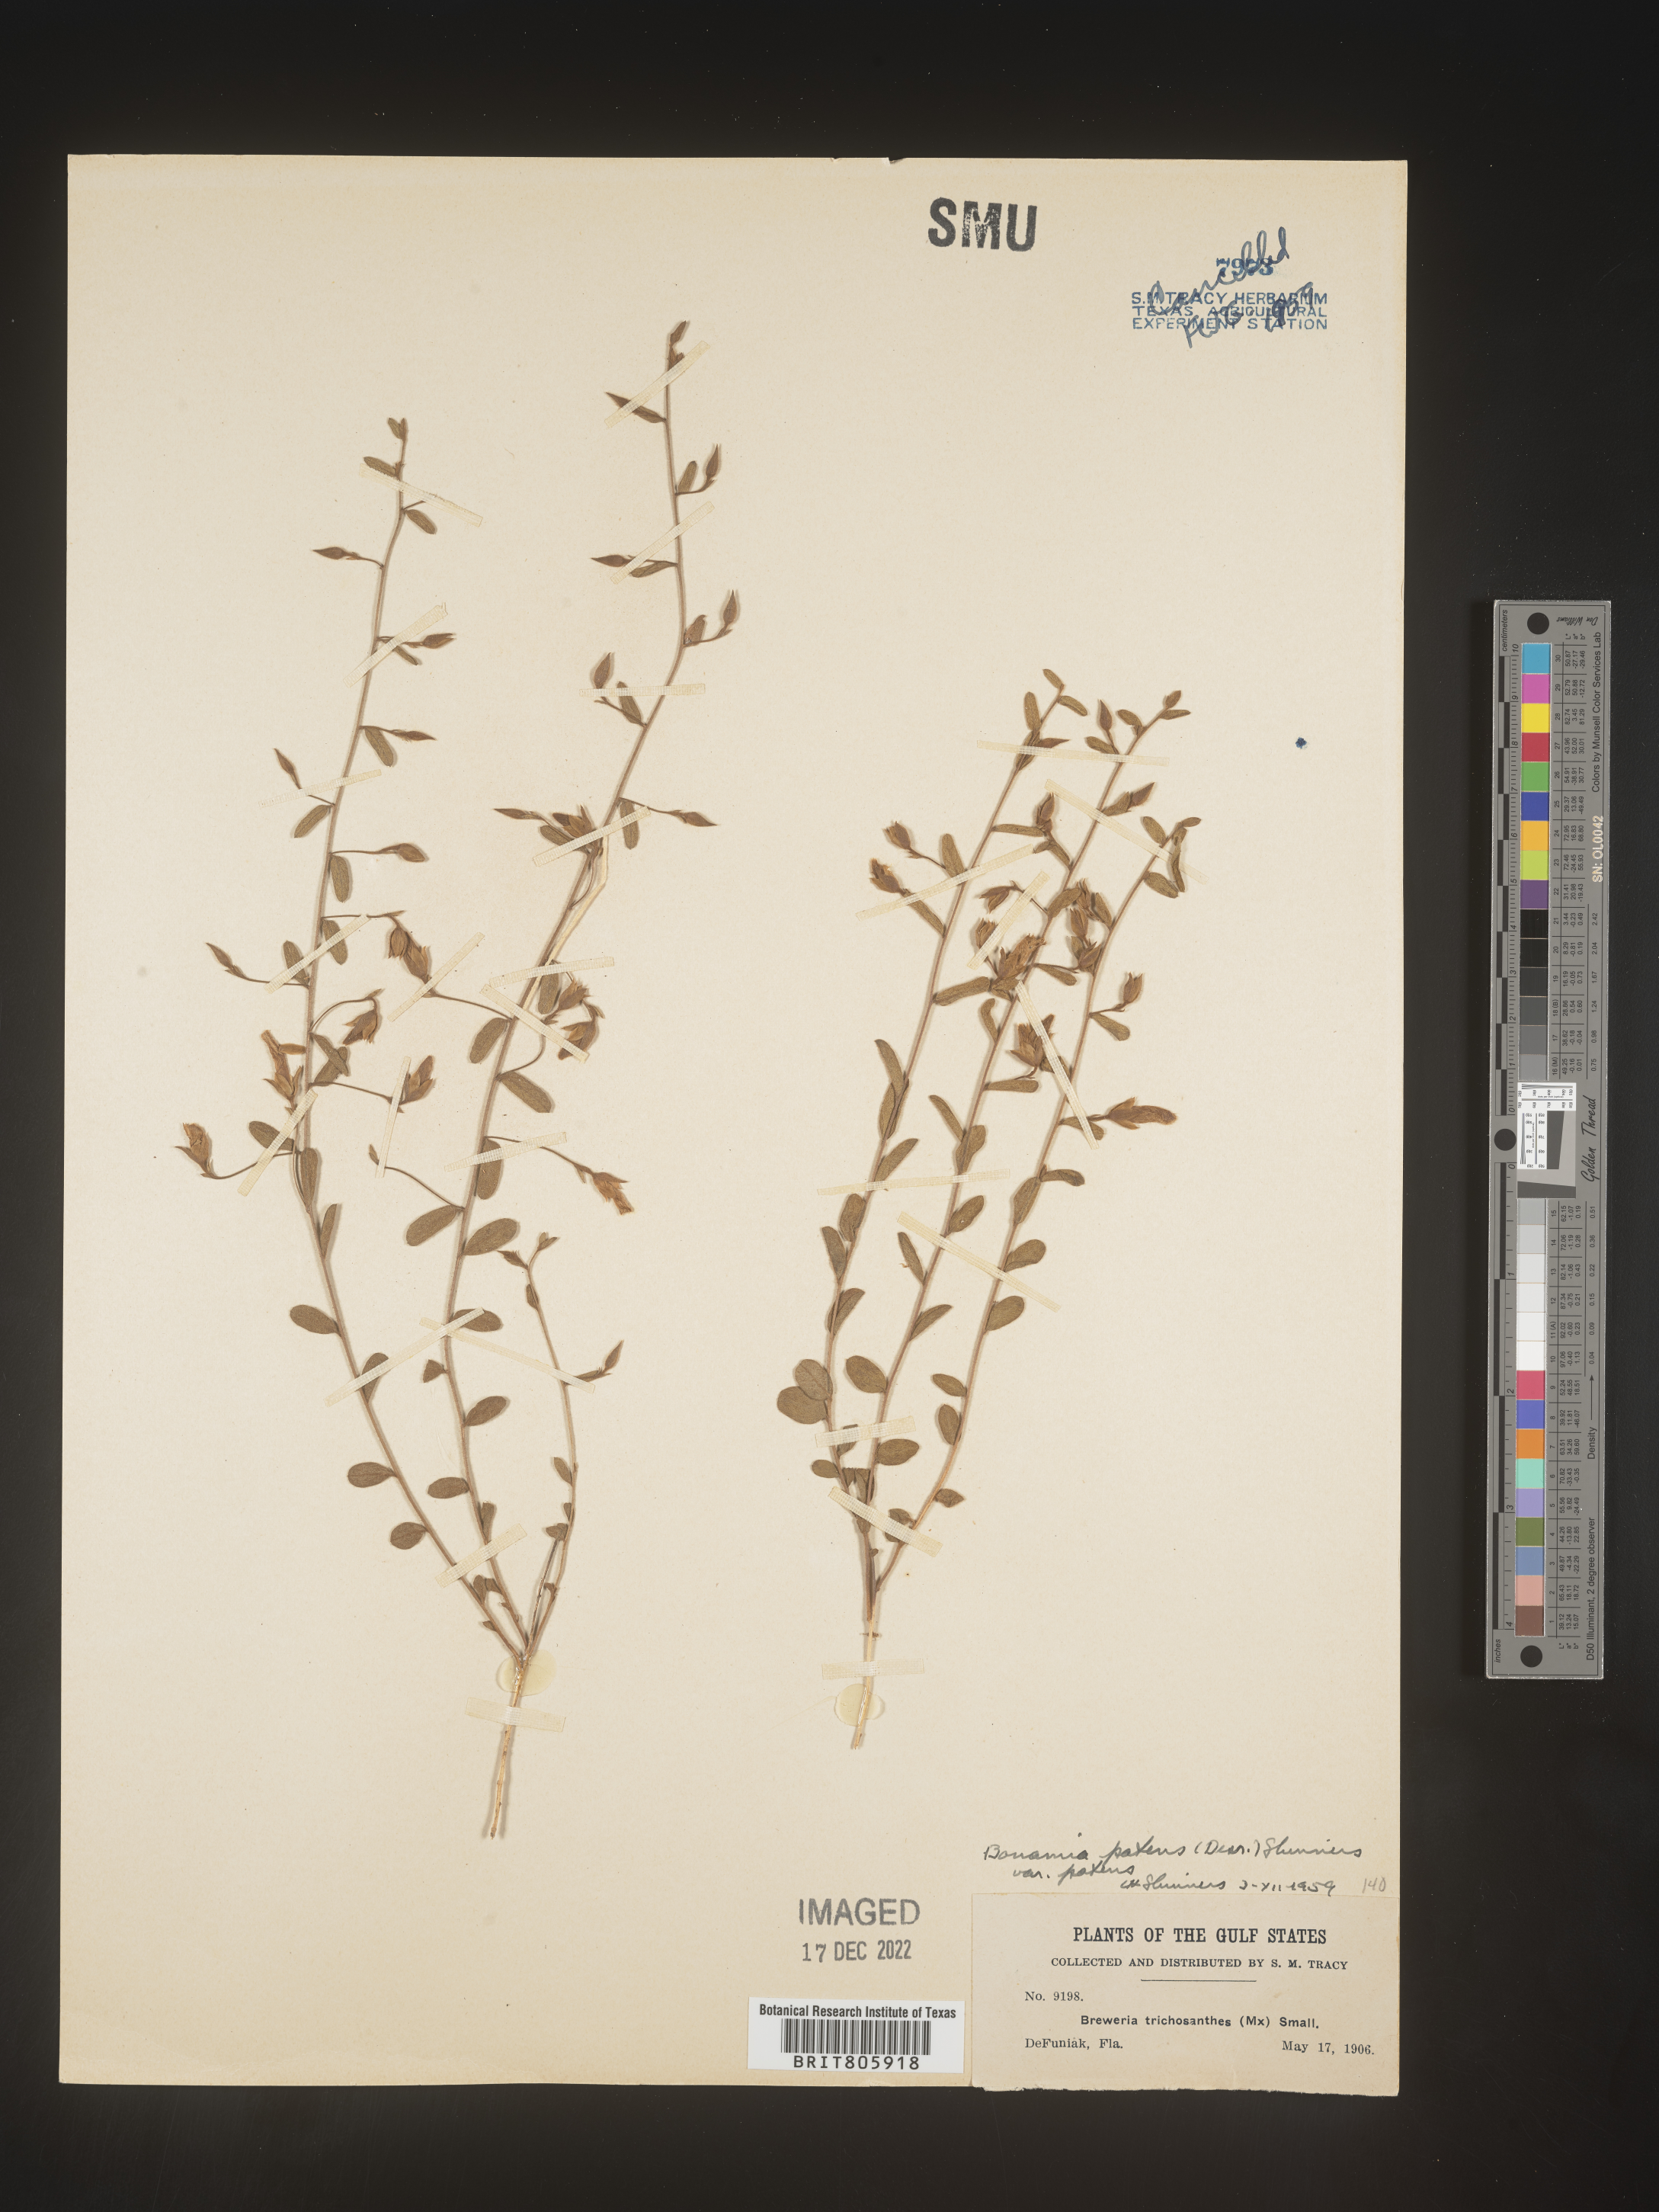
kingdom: Plantae
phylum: Tracheophyta
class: Magnoliopsida
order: Solanales
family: Convolvulaceae
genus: Stylisma
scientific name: Stylisma
